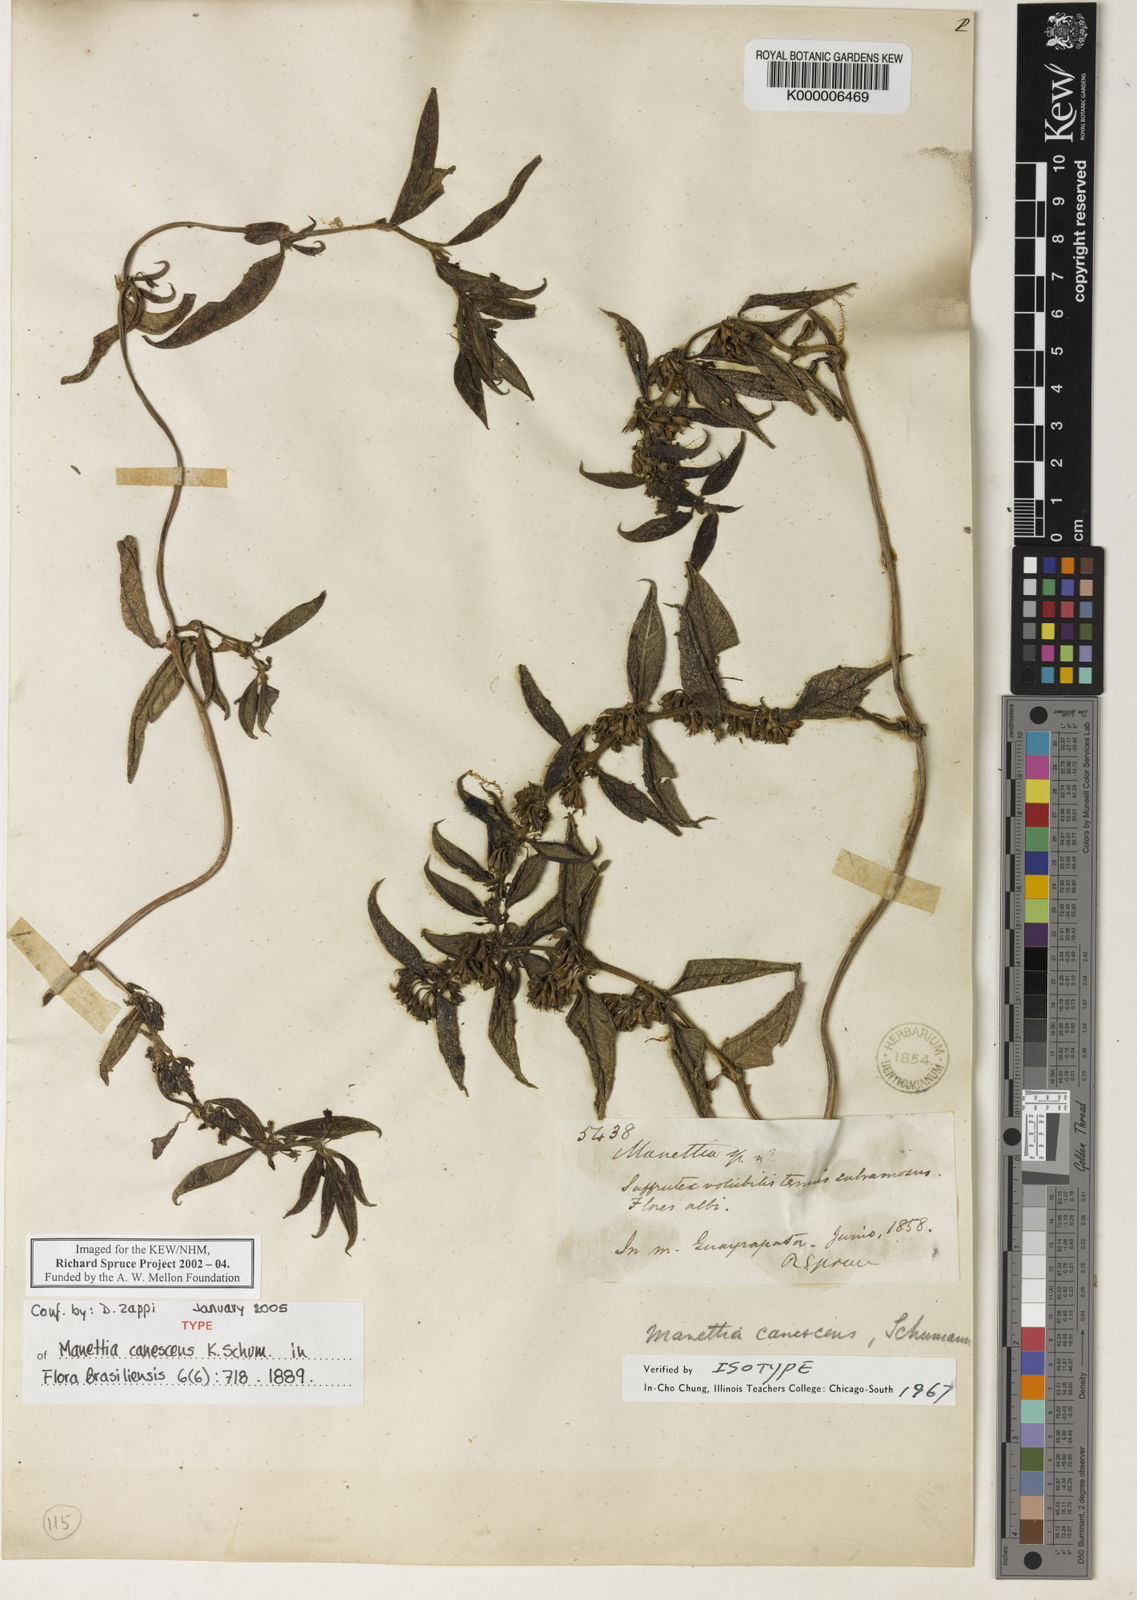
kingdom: Plantae
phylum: Tracheophyta
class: Magnoliopsida
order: Gentianales
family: Rubiaceae
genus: Manettia
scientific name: Manettia canescens
